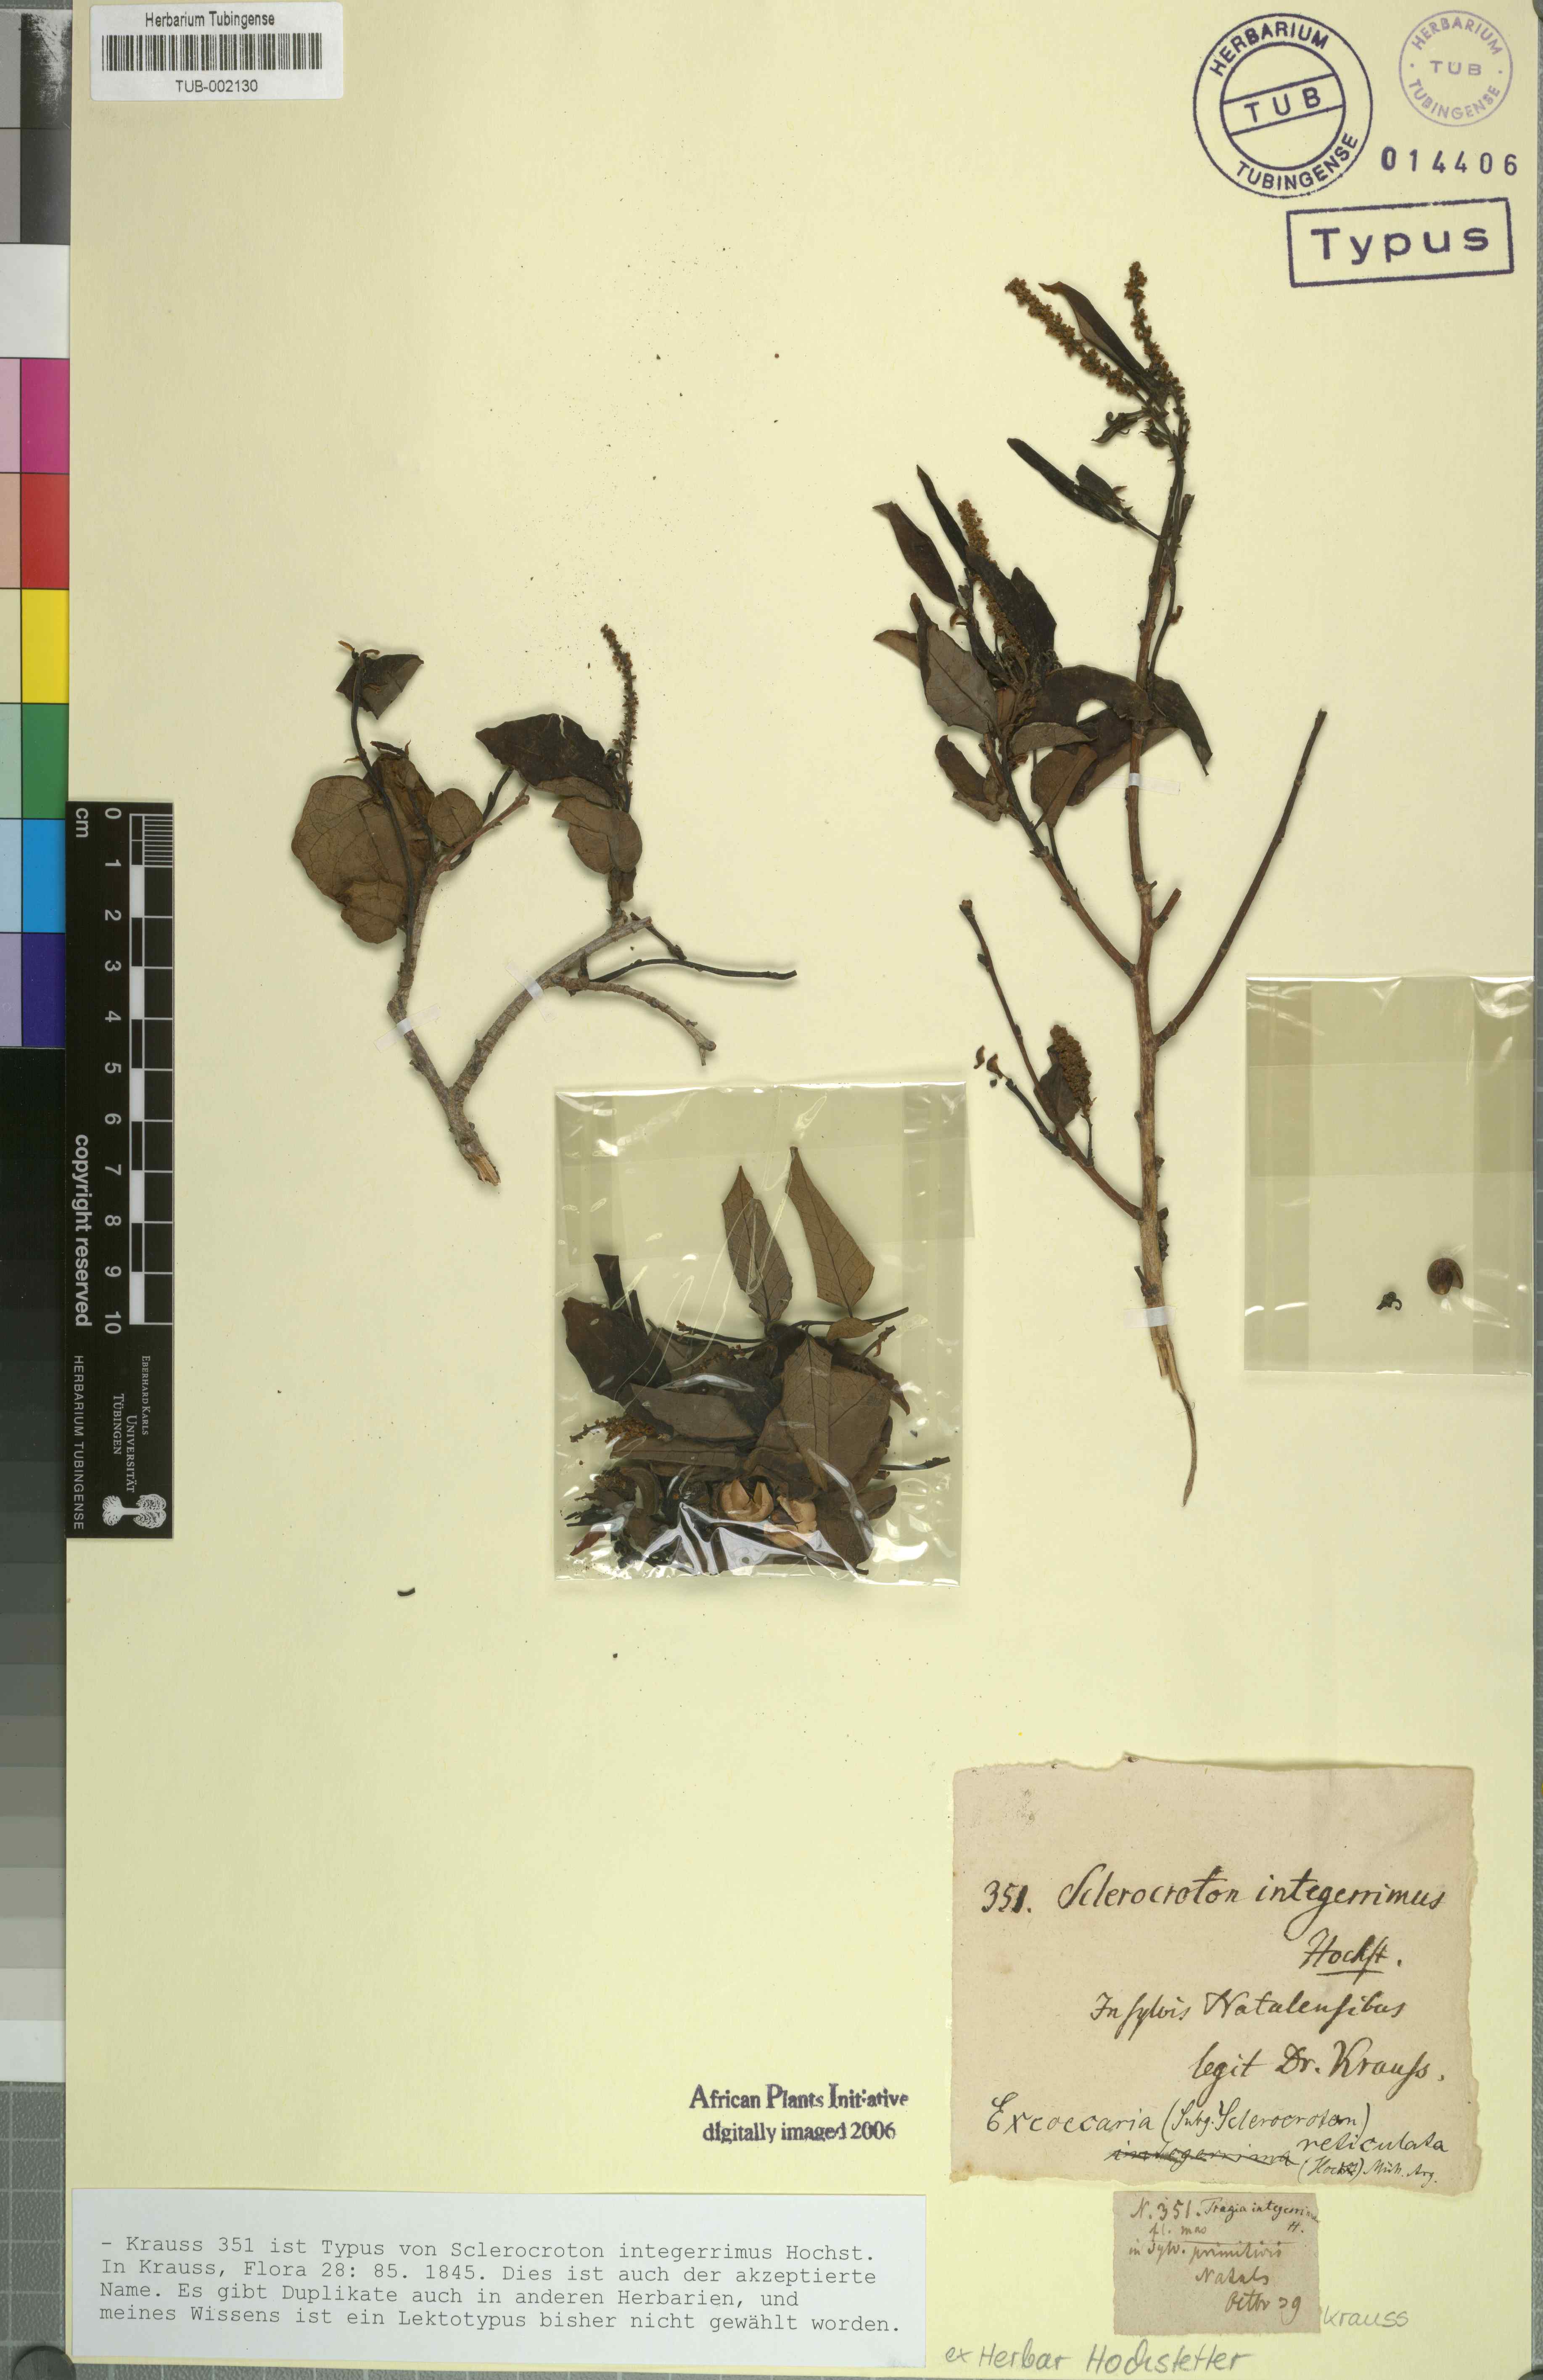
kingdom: Plantae
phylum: Tracheophyta
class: Magnoliopsida
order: Malpighiales
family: Euphorbiaceae
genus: Sclerocroton
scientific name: Sclerocroton integerrimus
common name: Duiker berry
